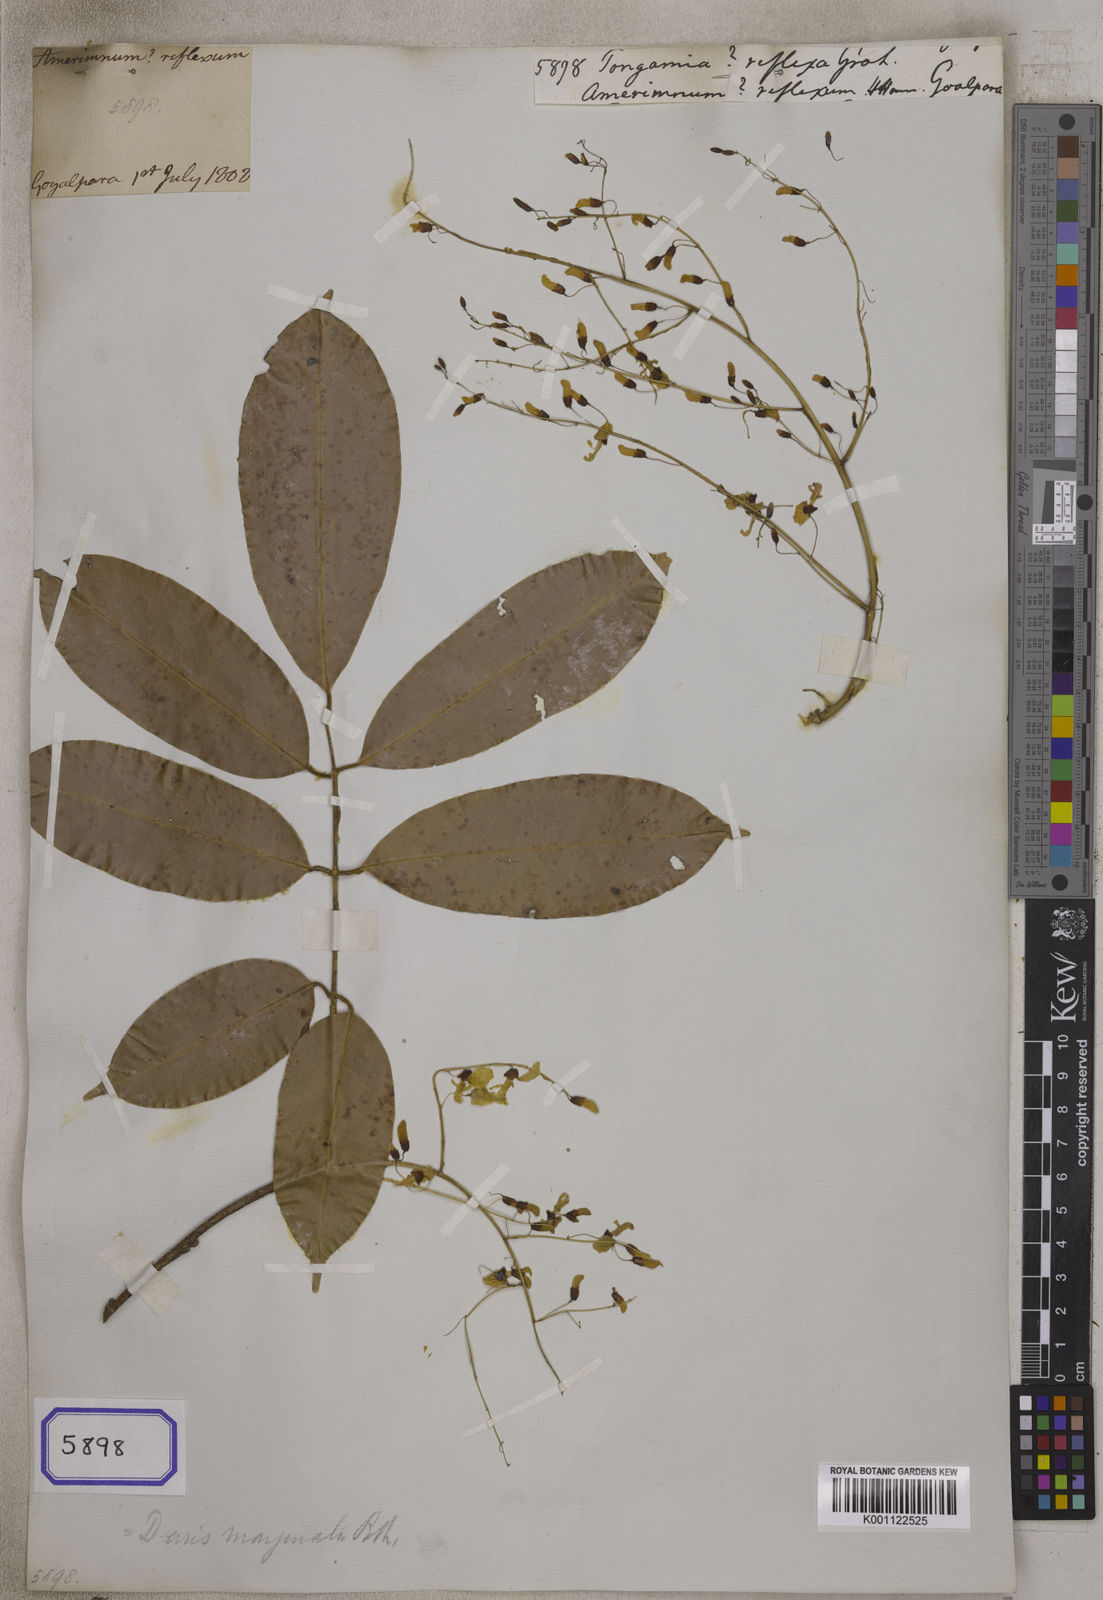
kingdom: Plantae
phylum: Tracheophyta
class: Magnoliopsida
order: Fabales
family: Fabaceae
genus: Derris
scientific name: Derris marginata
